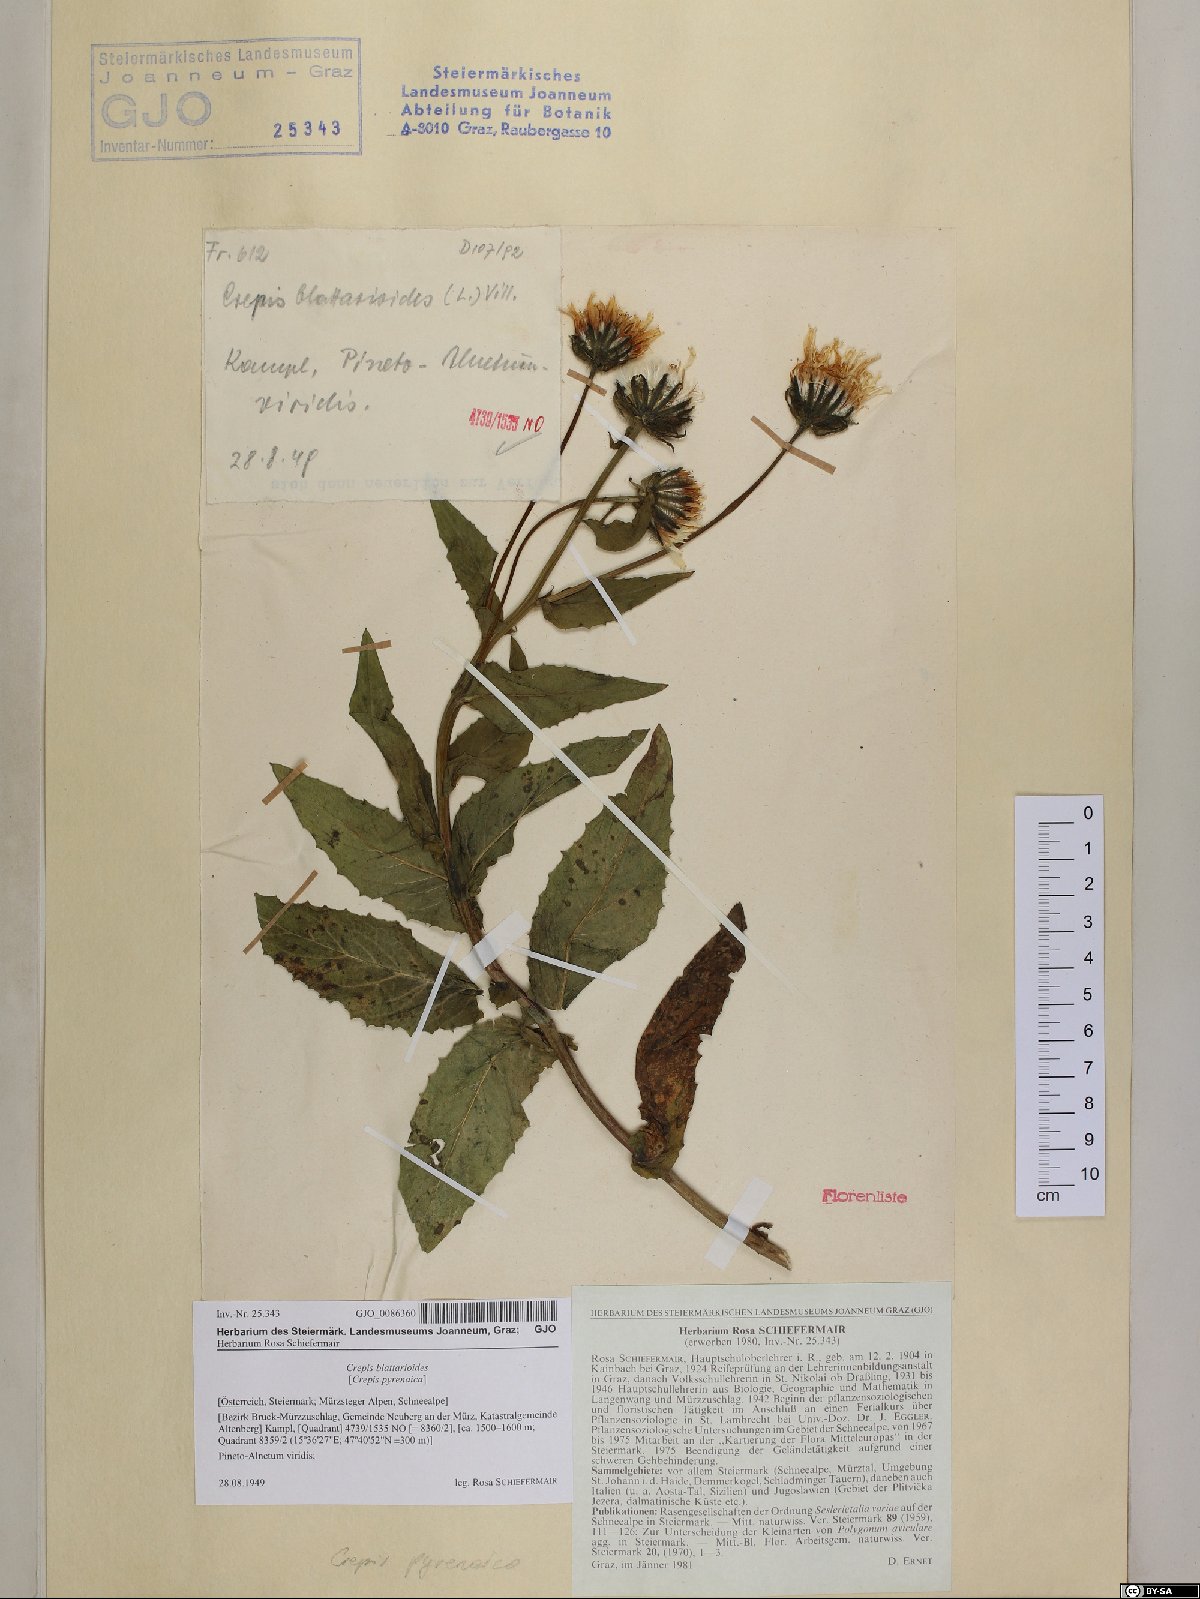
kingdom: Plantae
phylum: Tracheophyta
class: Magnoliopsida
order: Asterales
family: Asteraceae
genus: Crepis
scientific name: Crepis blattarioides
